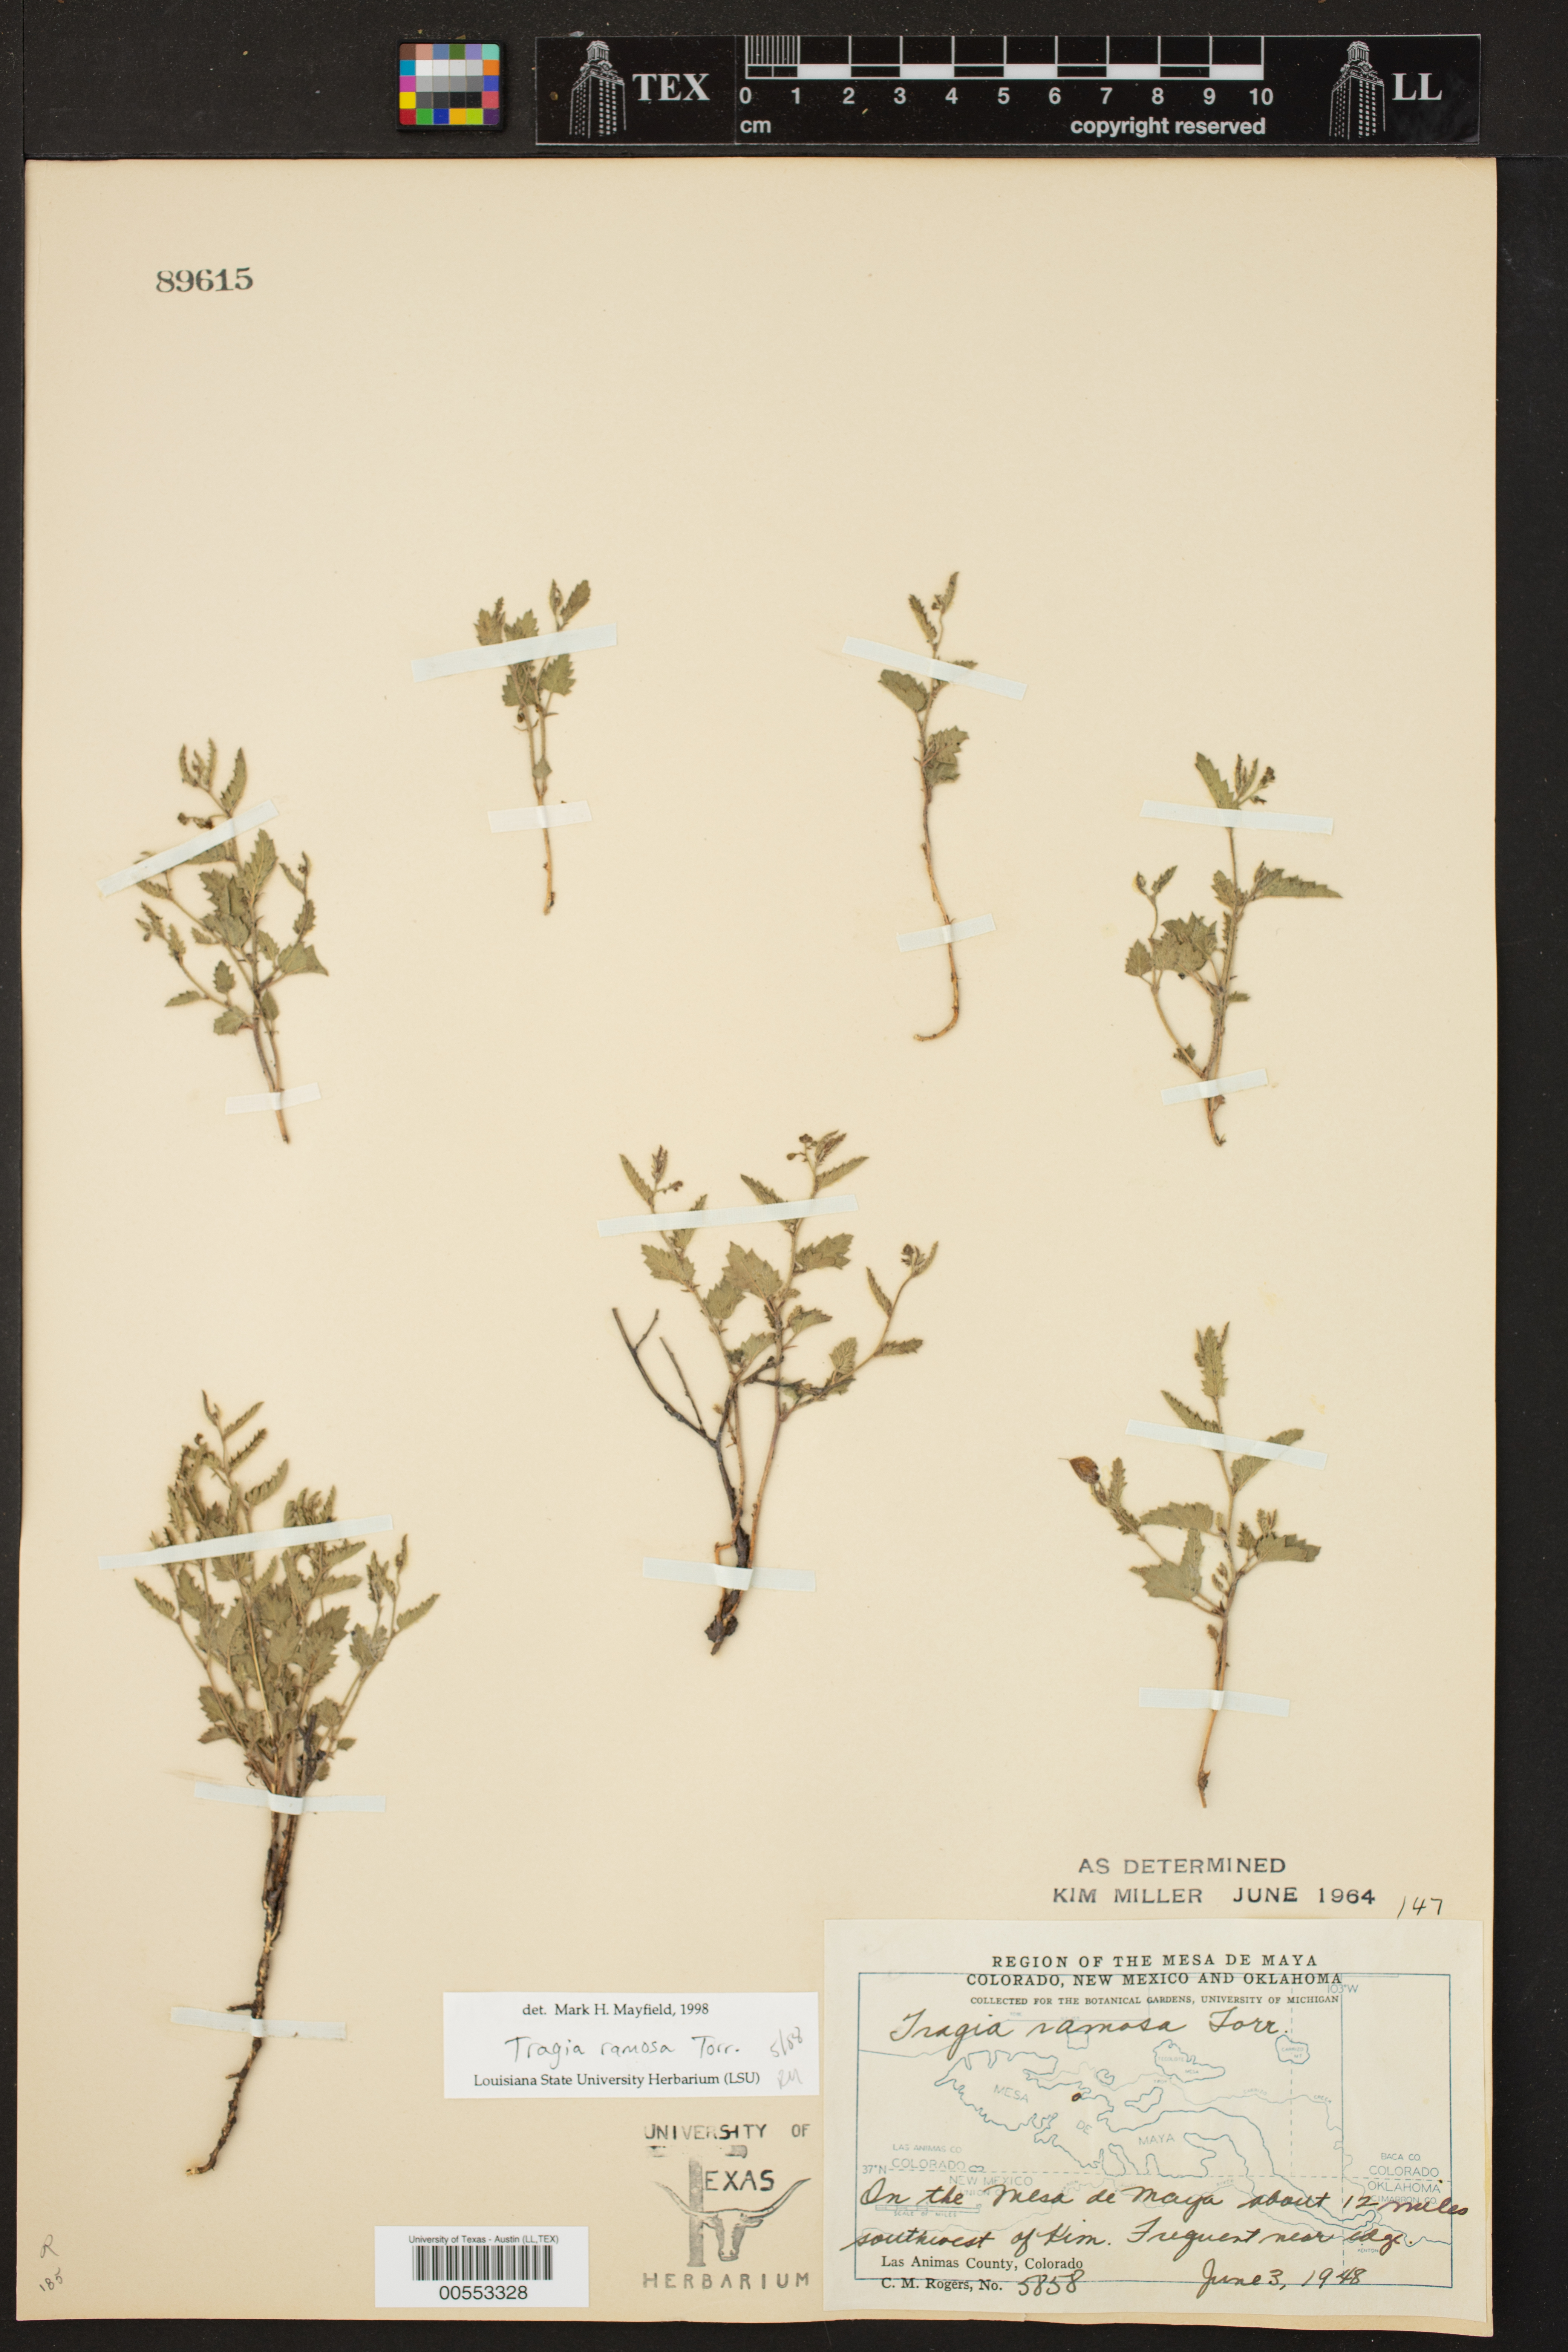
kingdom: Plantae
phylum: Tracheophyta
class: Magnoliopsida
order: Malpighiales
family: Euphorbiaceae
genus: Tragia
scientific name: Tragia ramosa
